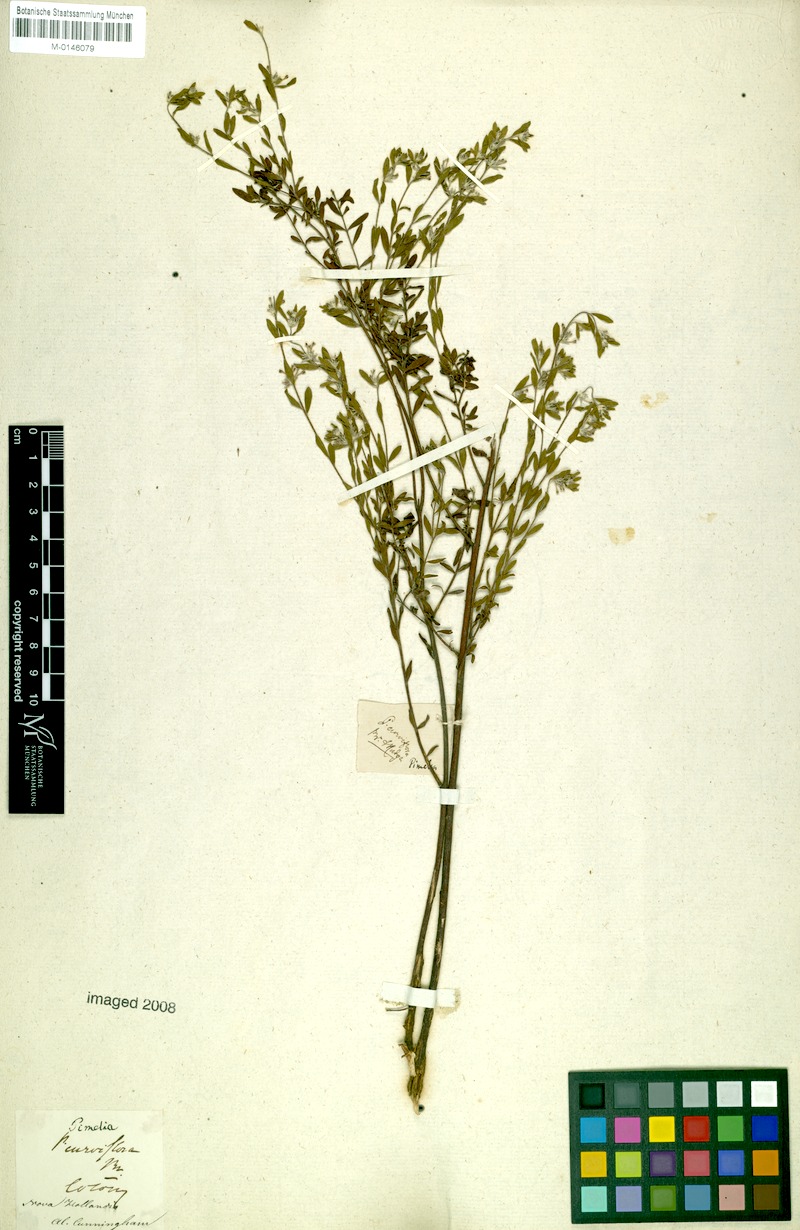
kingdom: Plantae
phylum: Tracheophyta
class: Magnoliopsida
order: Malvales
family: Thymelaeaceae
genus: Pimelea
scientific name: Pimelea curviflora
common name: Curved riceflower
